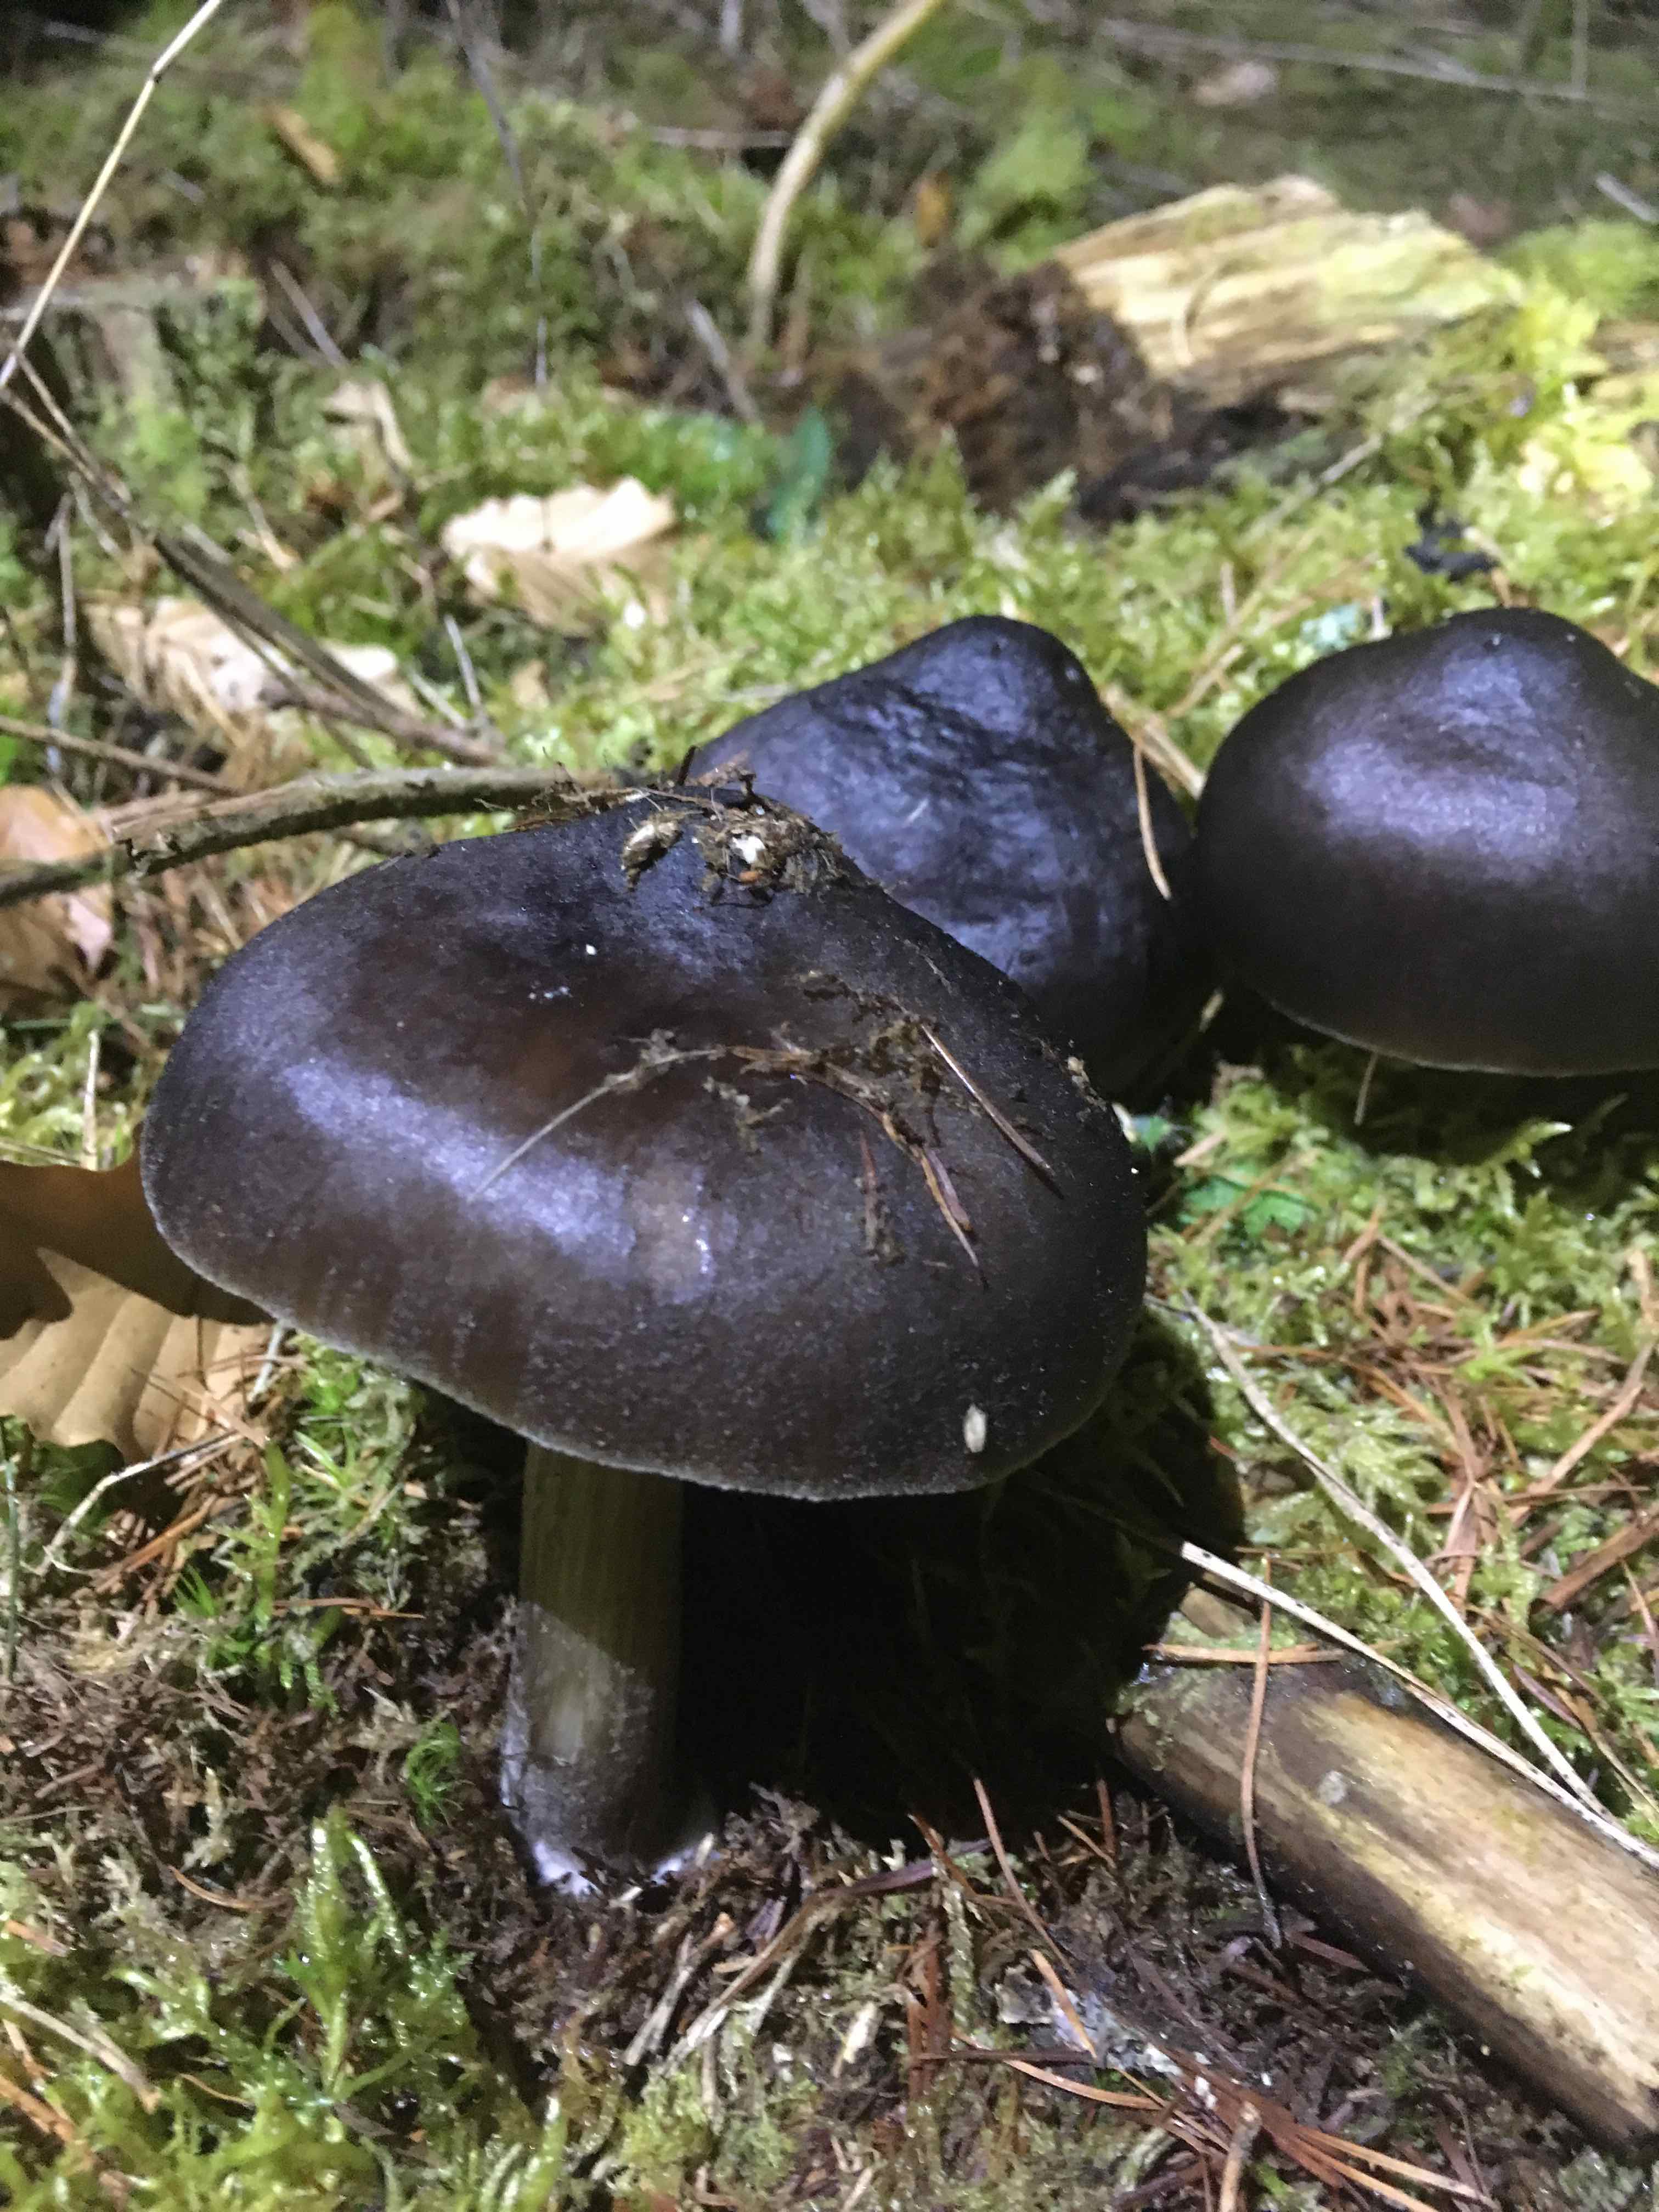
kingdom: Fungi
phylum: Basidiomycota
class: Agaricomycetes
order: Agaricales
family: Pluteaceae
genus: Pluteus
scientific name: Pluteus
